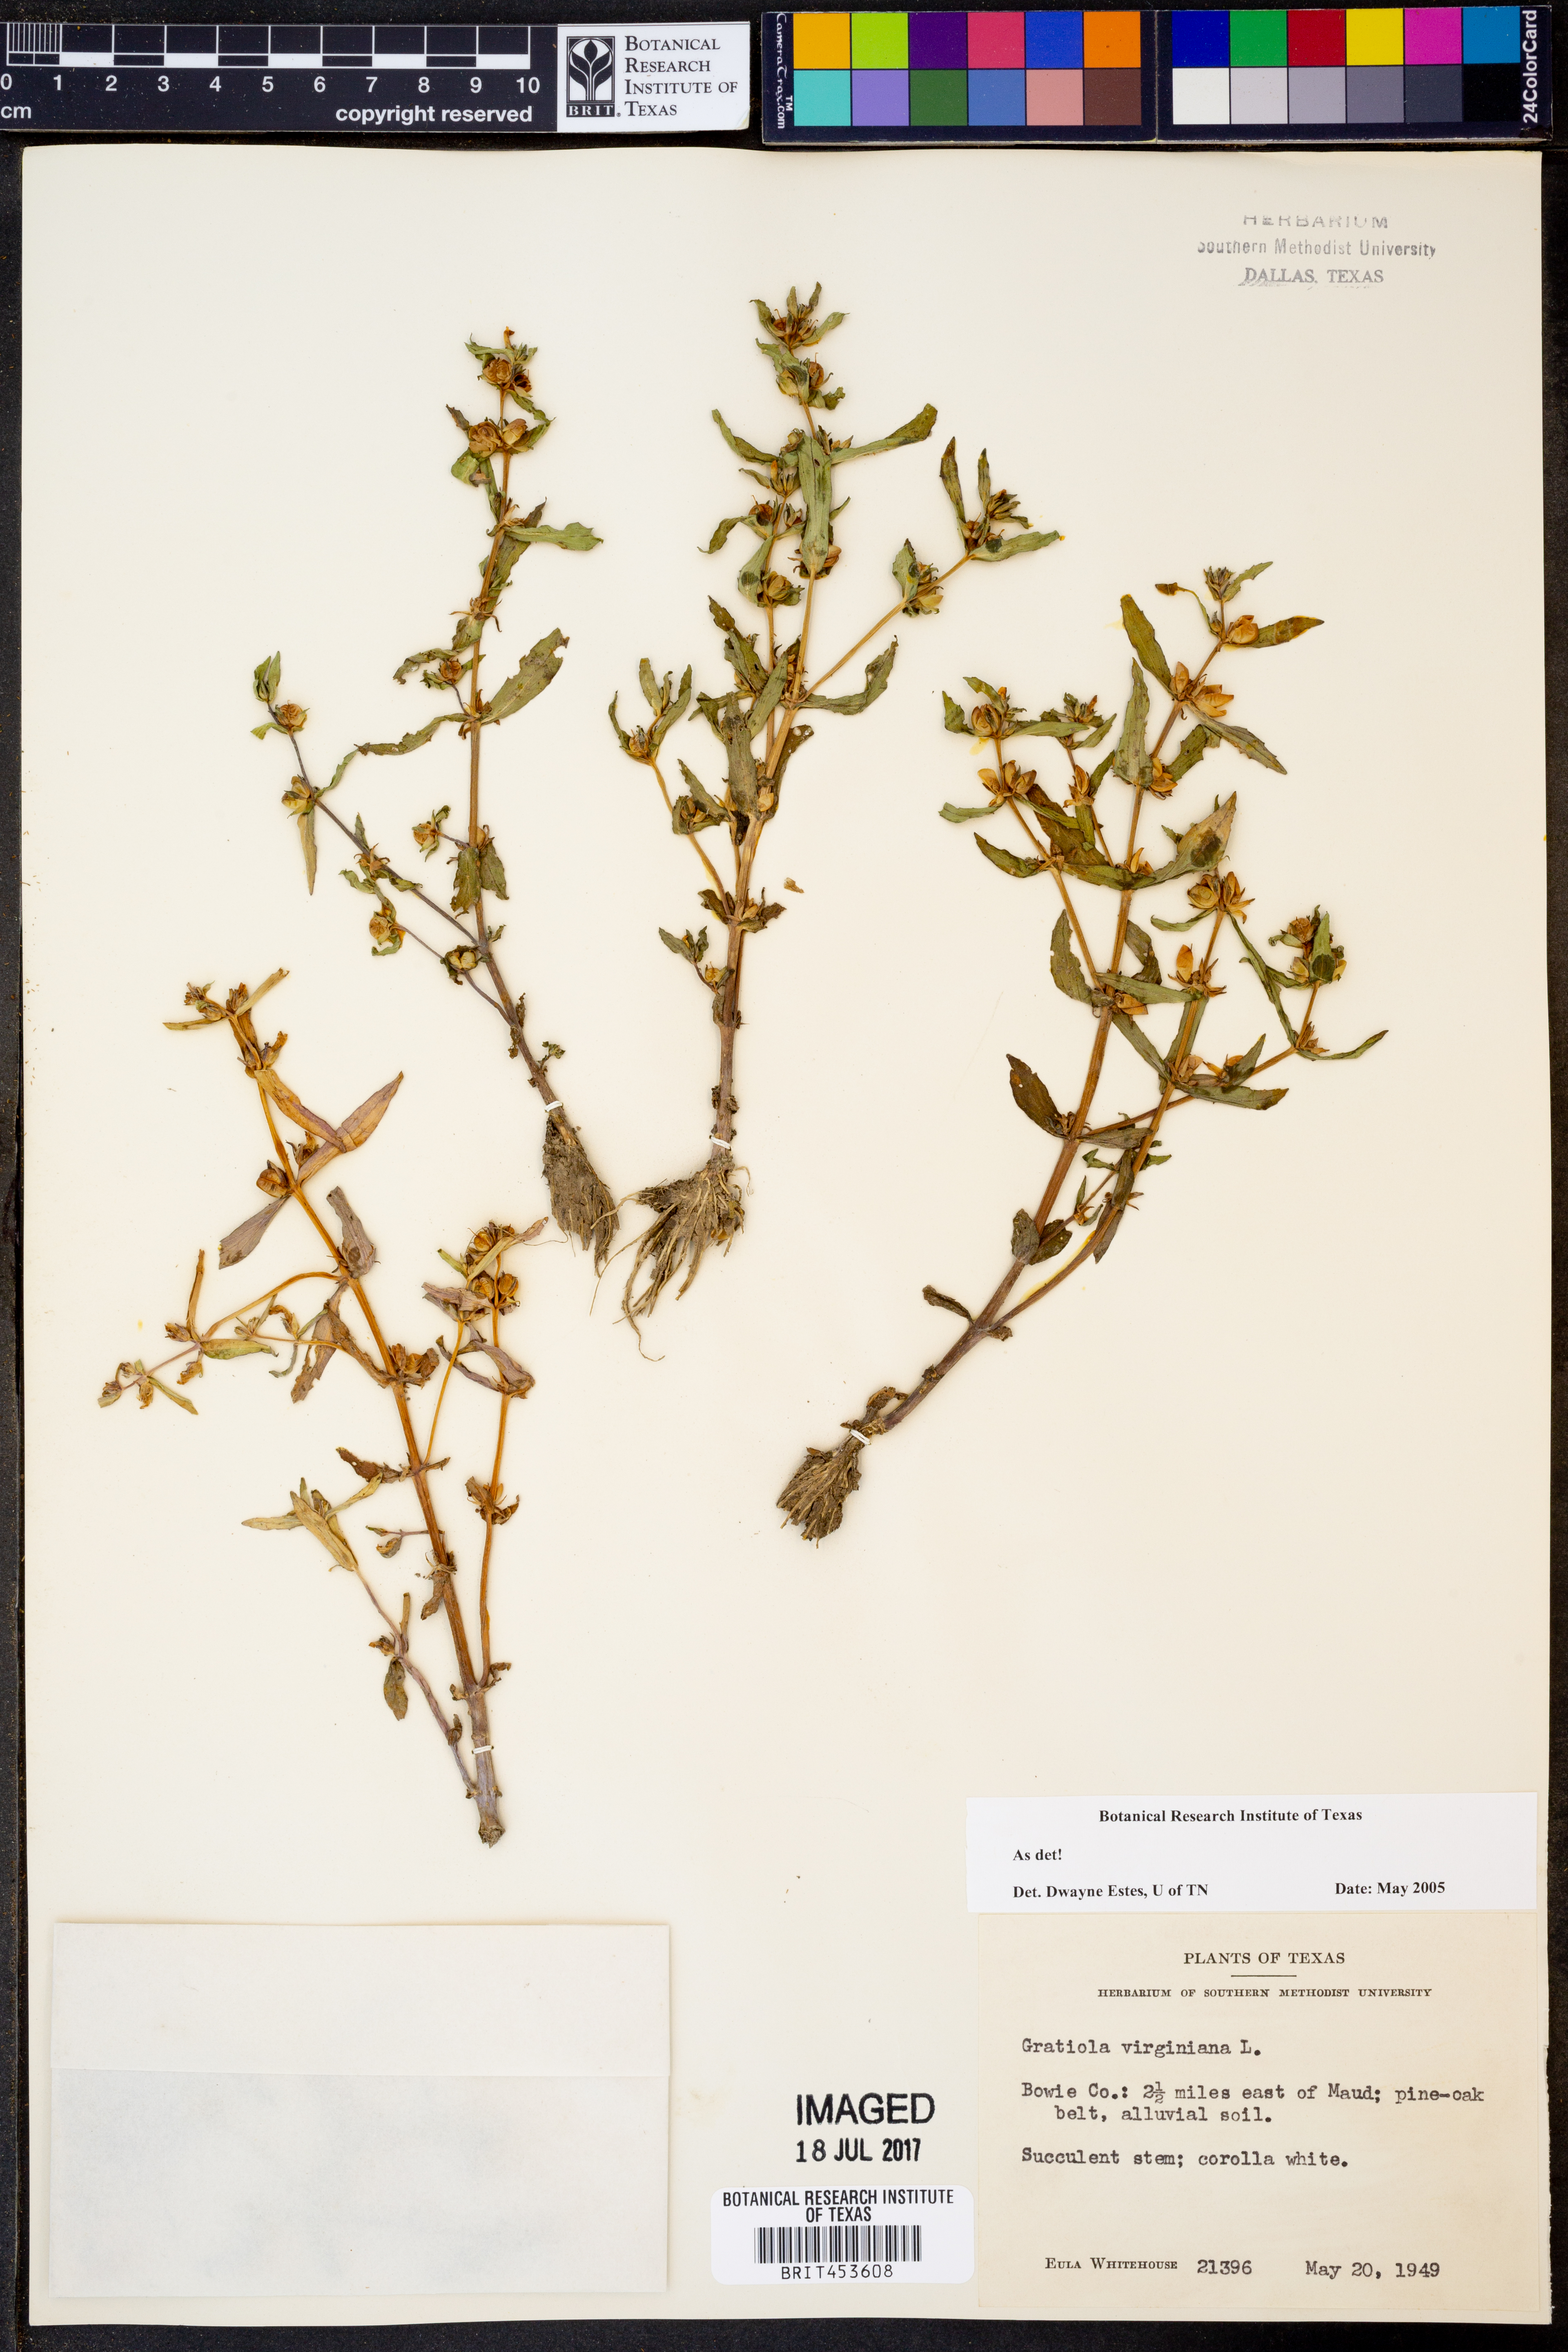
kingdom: Plantae
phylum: Tracheophyta
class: Magnoliopsida
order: Lamiales
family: Plantaginaceae
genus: Gratiola
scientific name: Gratiola virginiana
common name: Roundfruit hedgehyssop
